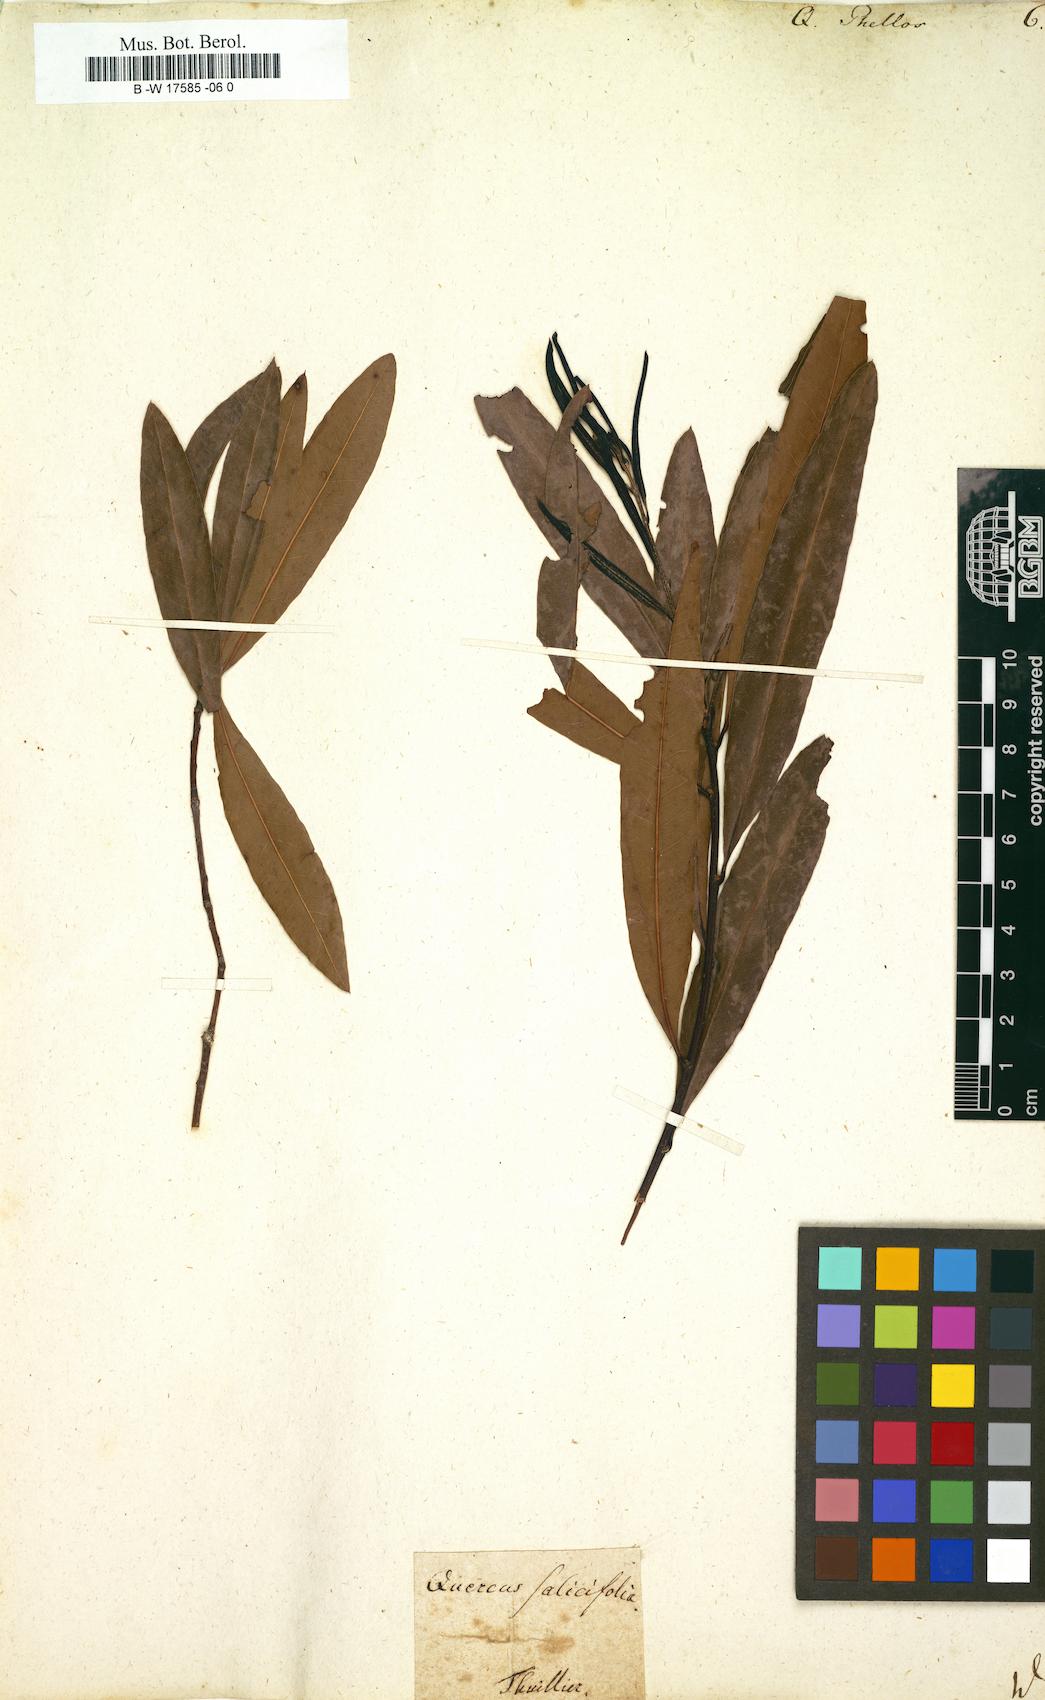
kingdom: Plantae
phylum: Tracheophyta
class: Magnoliopsida
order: Fagales
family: Fagaceae
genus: Quercus
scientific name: Quercus phellos
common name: Willow oak
